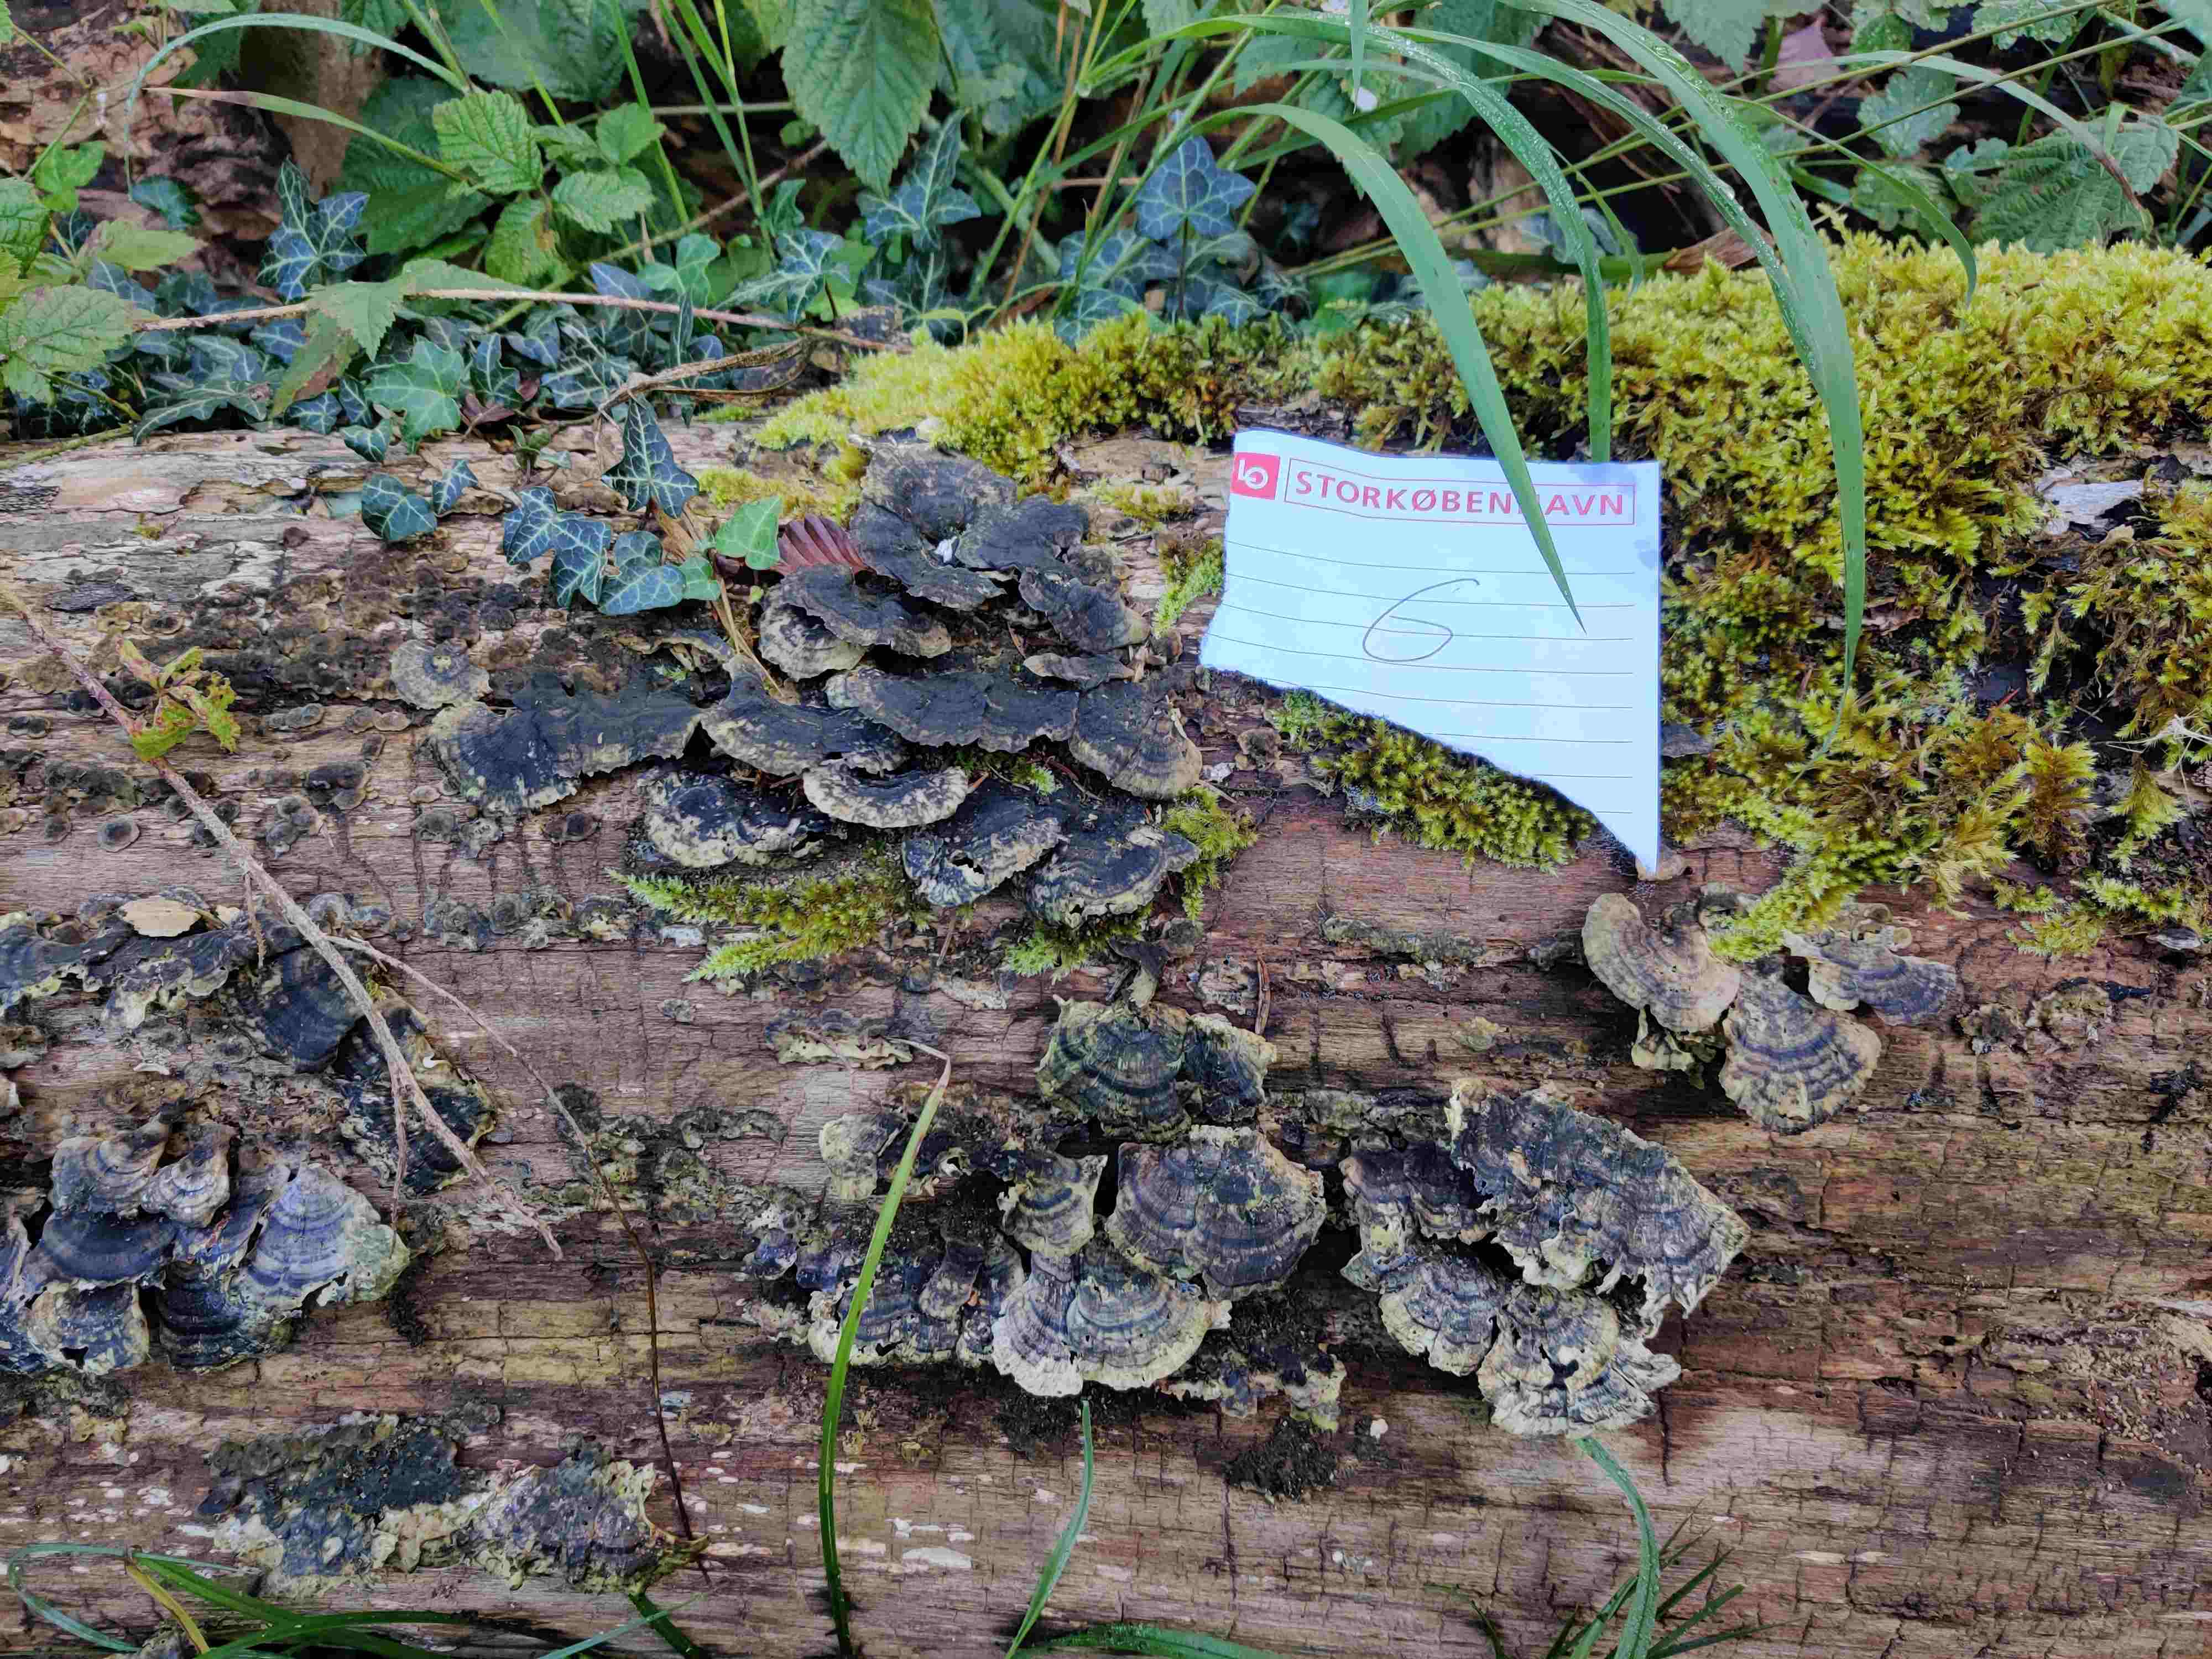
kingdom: Fungi
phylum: Basidiomycota
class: Agaricomycetes
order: Polyporales
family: Polyporaceae
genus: Trametes
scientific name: Trametes versicolor
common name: broget læderporesvamp
